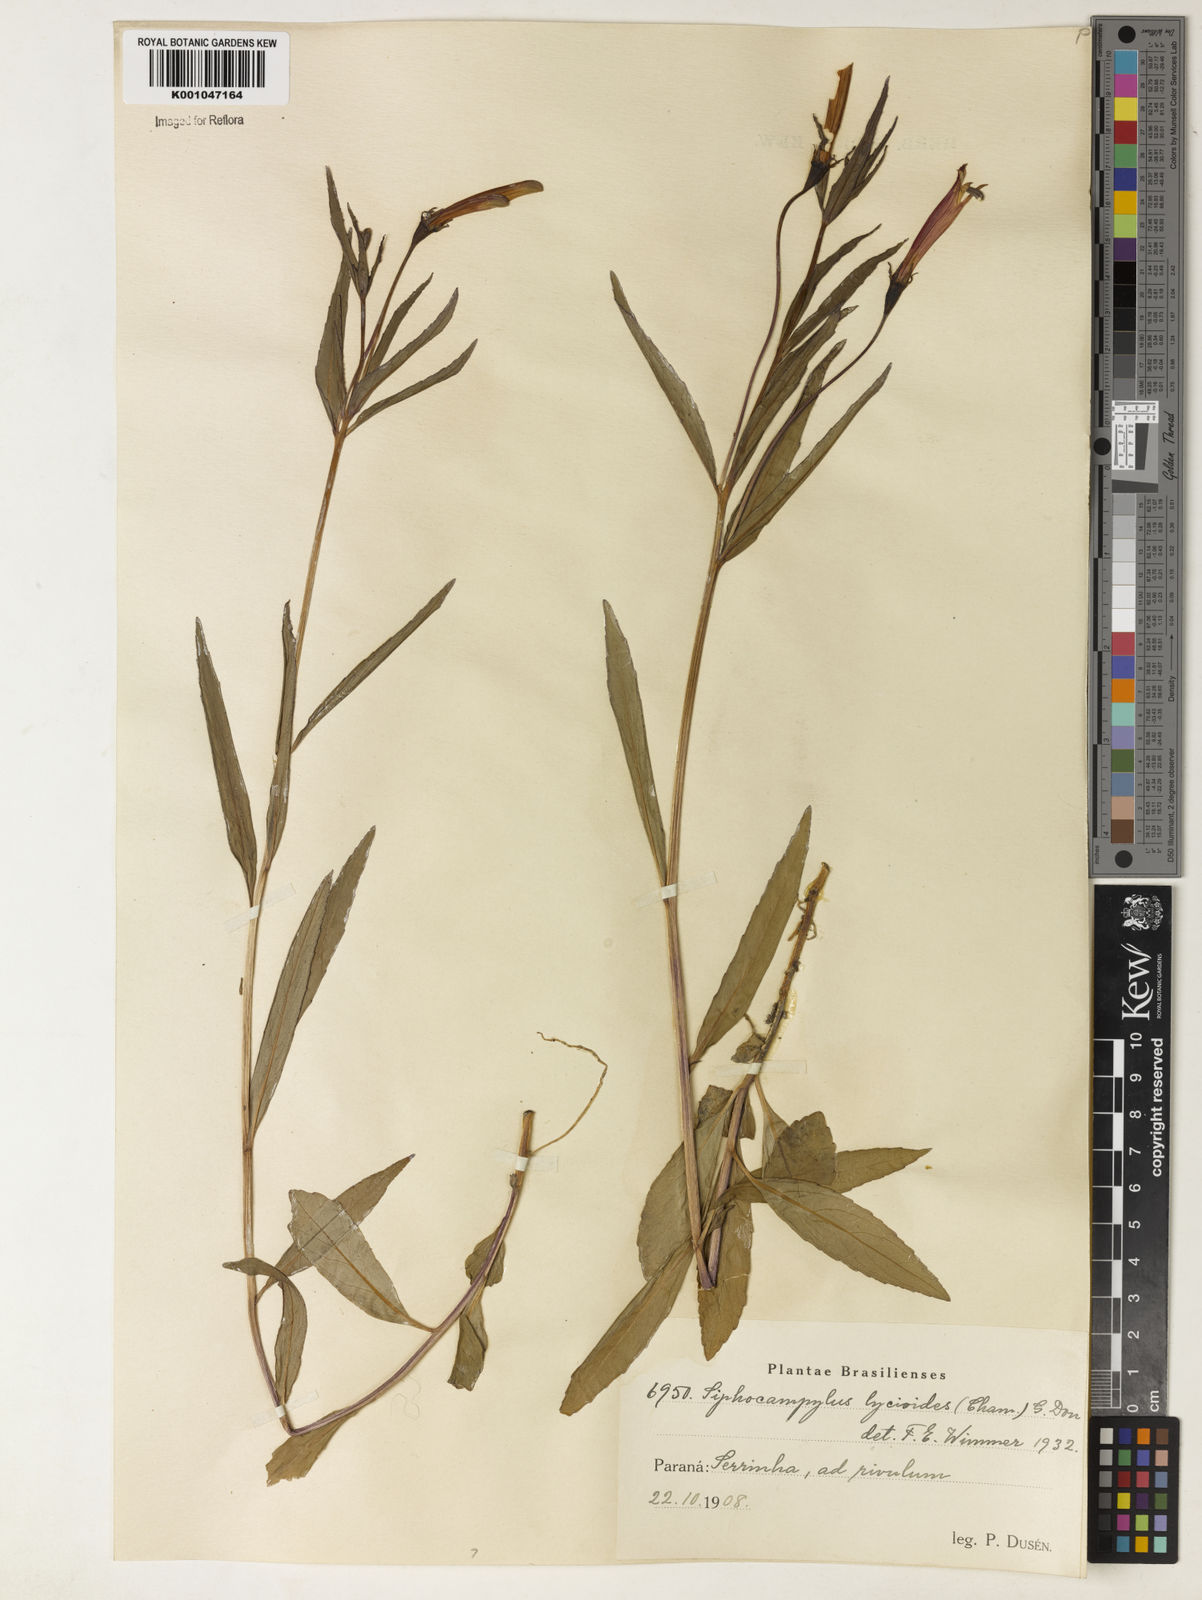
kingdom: Plantae
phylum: Tracheophyta
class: Magnoliopsida
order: Asterales
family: Campanulaceae
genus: Siphocampylus
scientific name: Siphocampylus lycioides
